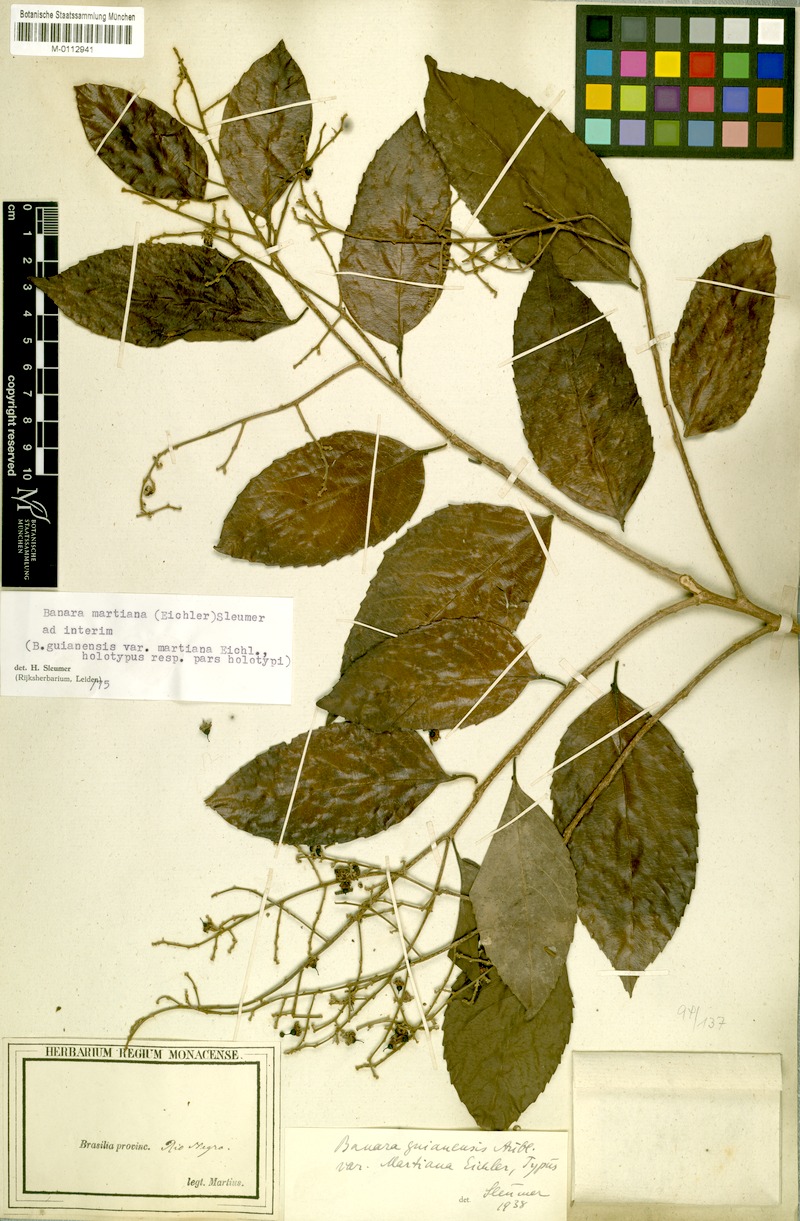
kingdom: Plantae
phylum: Tracheophyta
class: Magnoliopsida
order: Malpighiales
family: Salicaceae
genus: Banara
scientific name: Banara arguta
